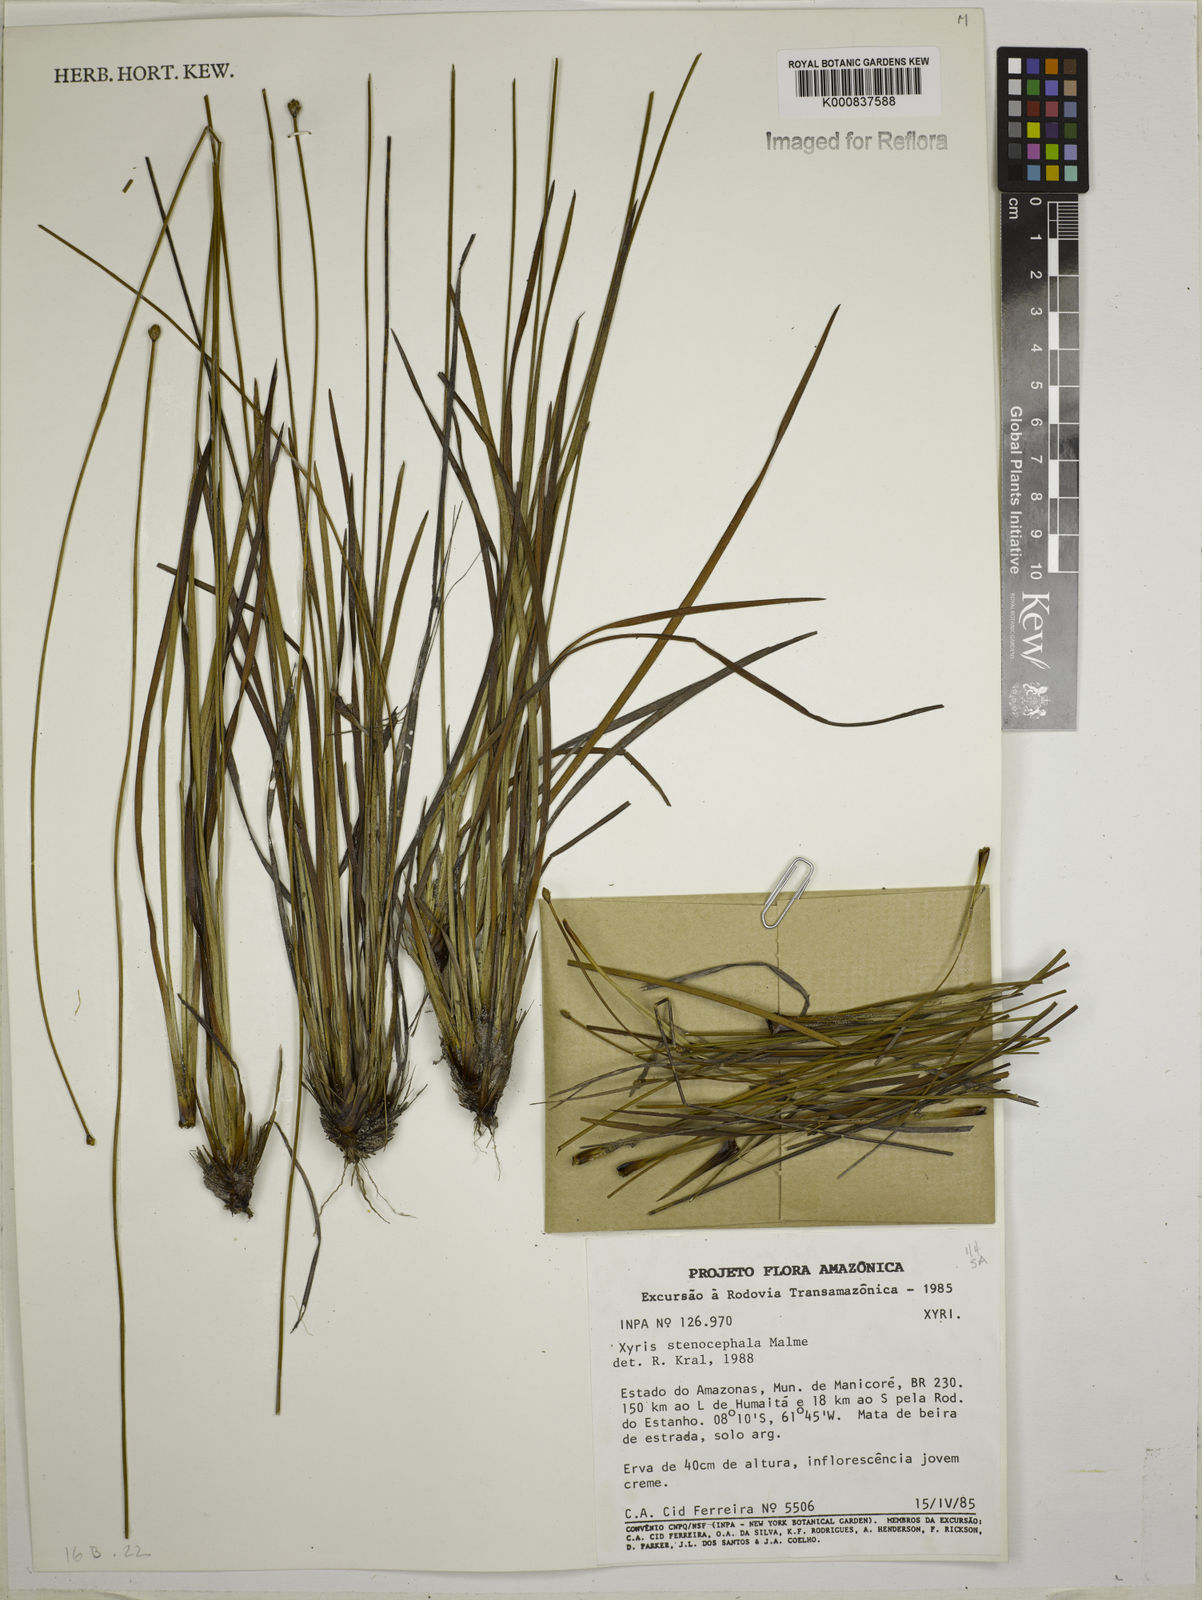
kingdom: Plantae
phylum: Tracheophyta
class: Liliopsida
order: Poales
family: Xyridaceae
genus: Xyris
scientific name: Xyris stenocephala
